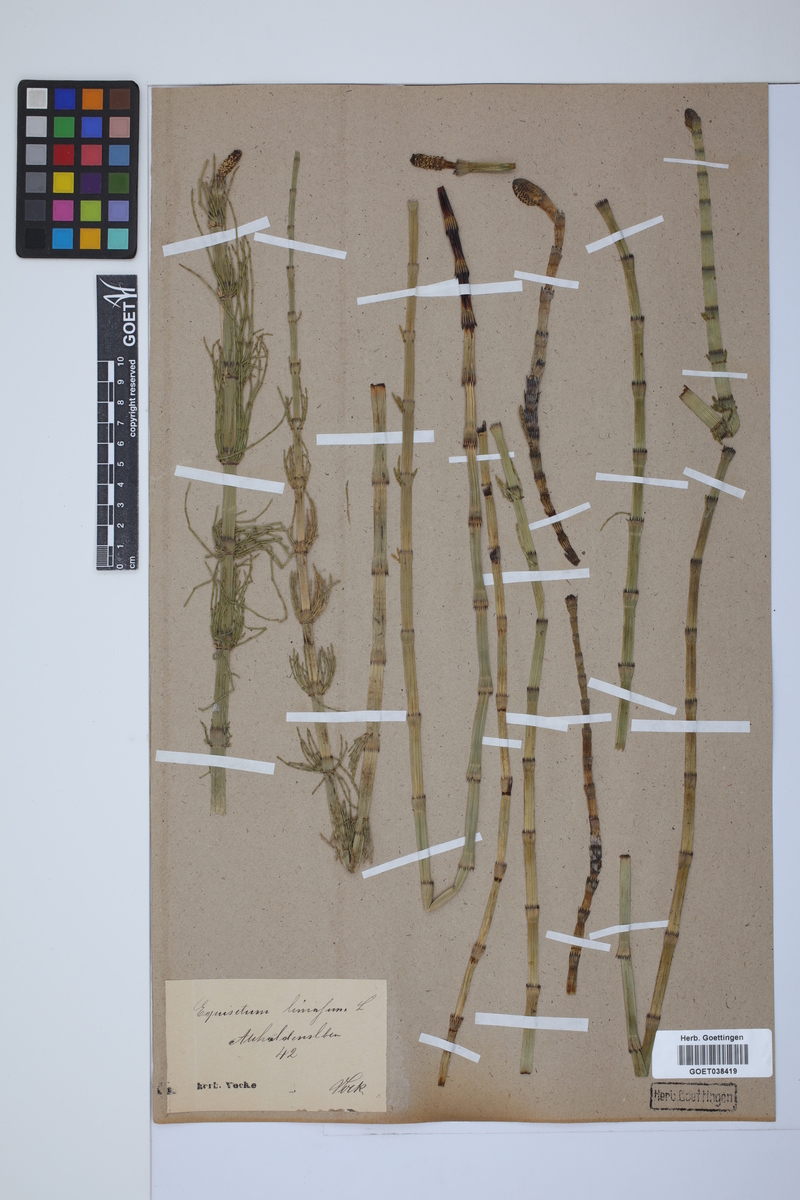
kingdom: Plantae
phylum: Tracheophyta
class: Polypodiopsida
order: Equisetales
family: Equisetaceae
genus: Equisetum
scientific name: Equisetum fluviatile
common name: Water horsetail
